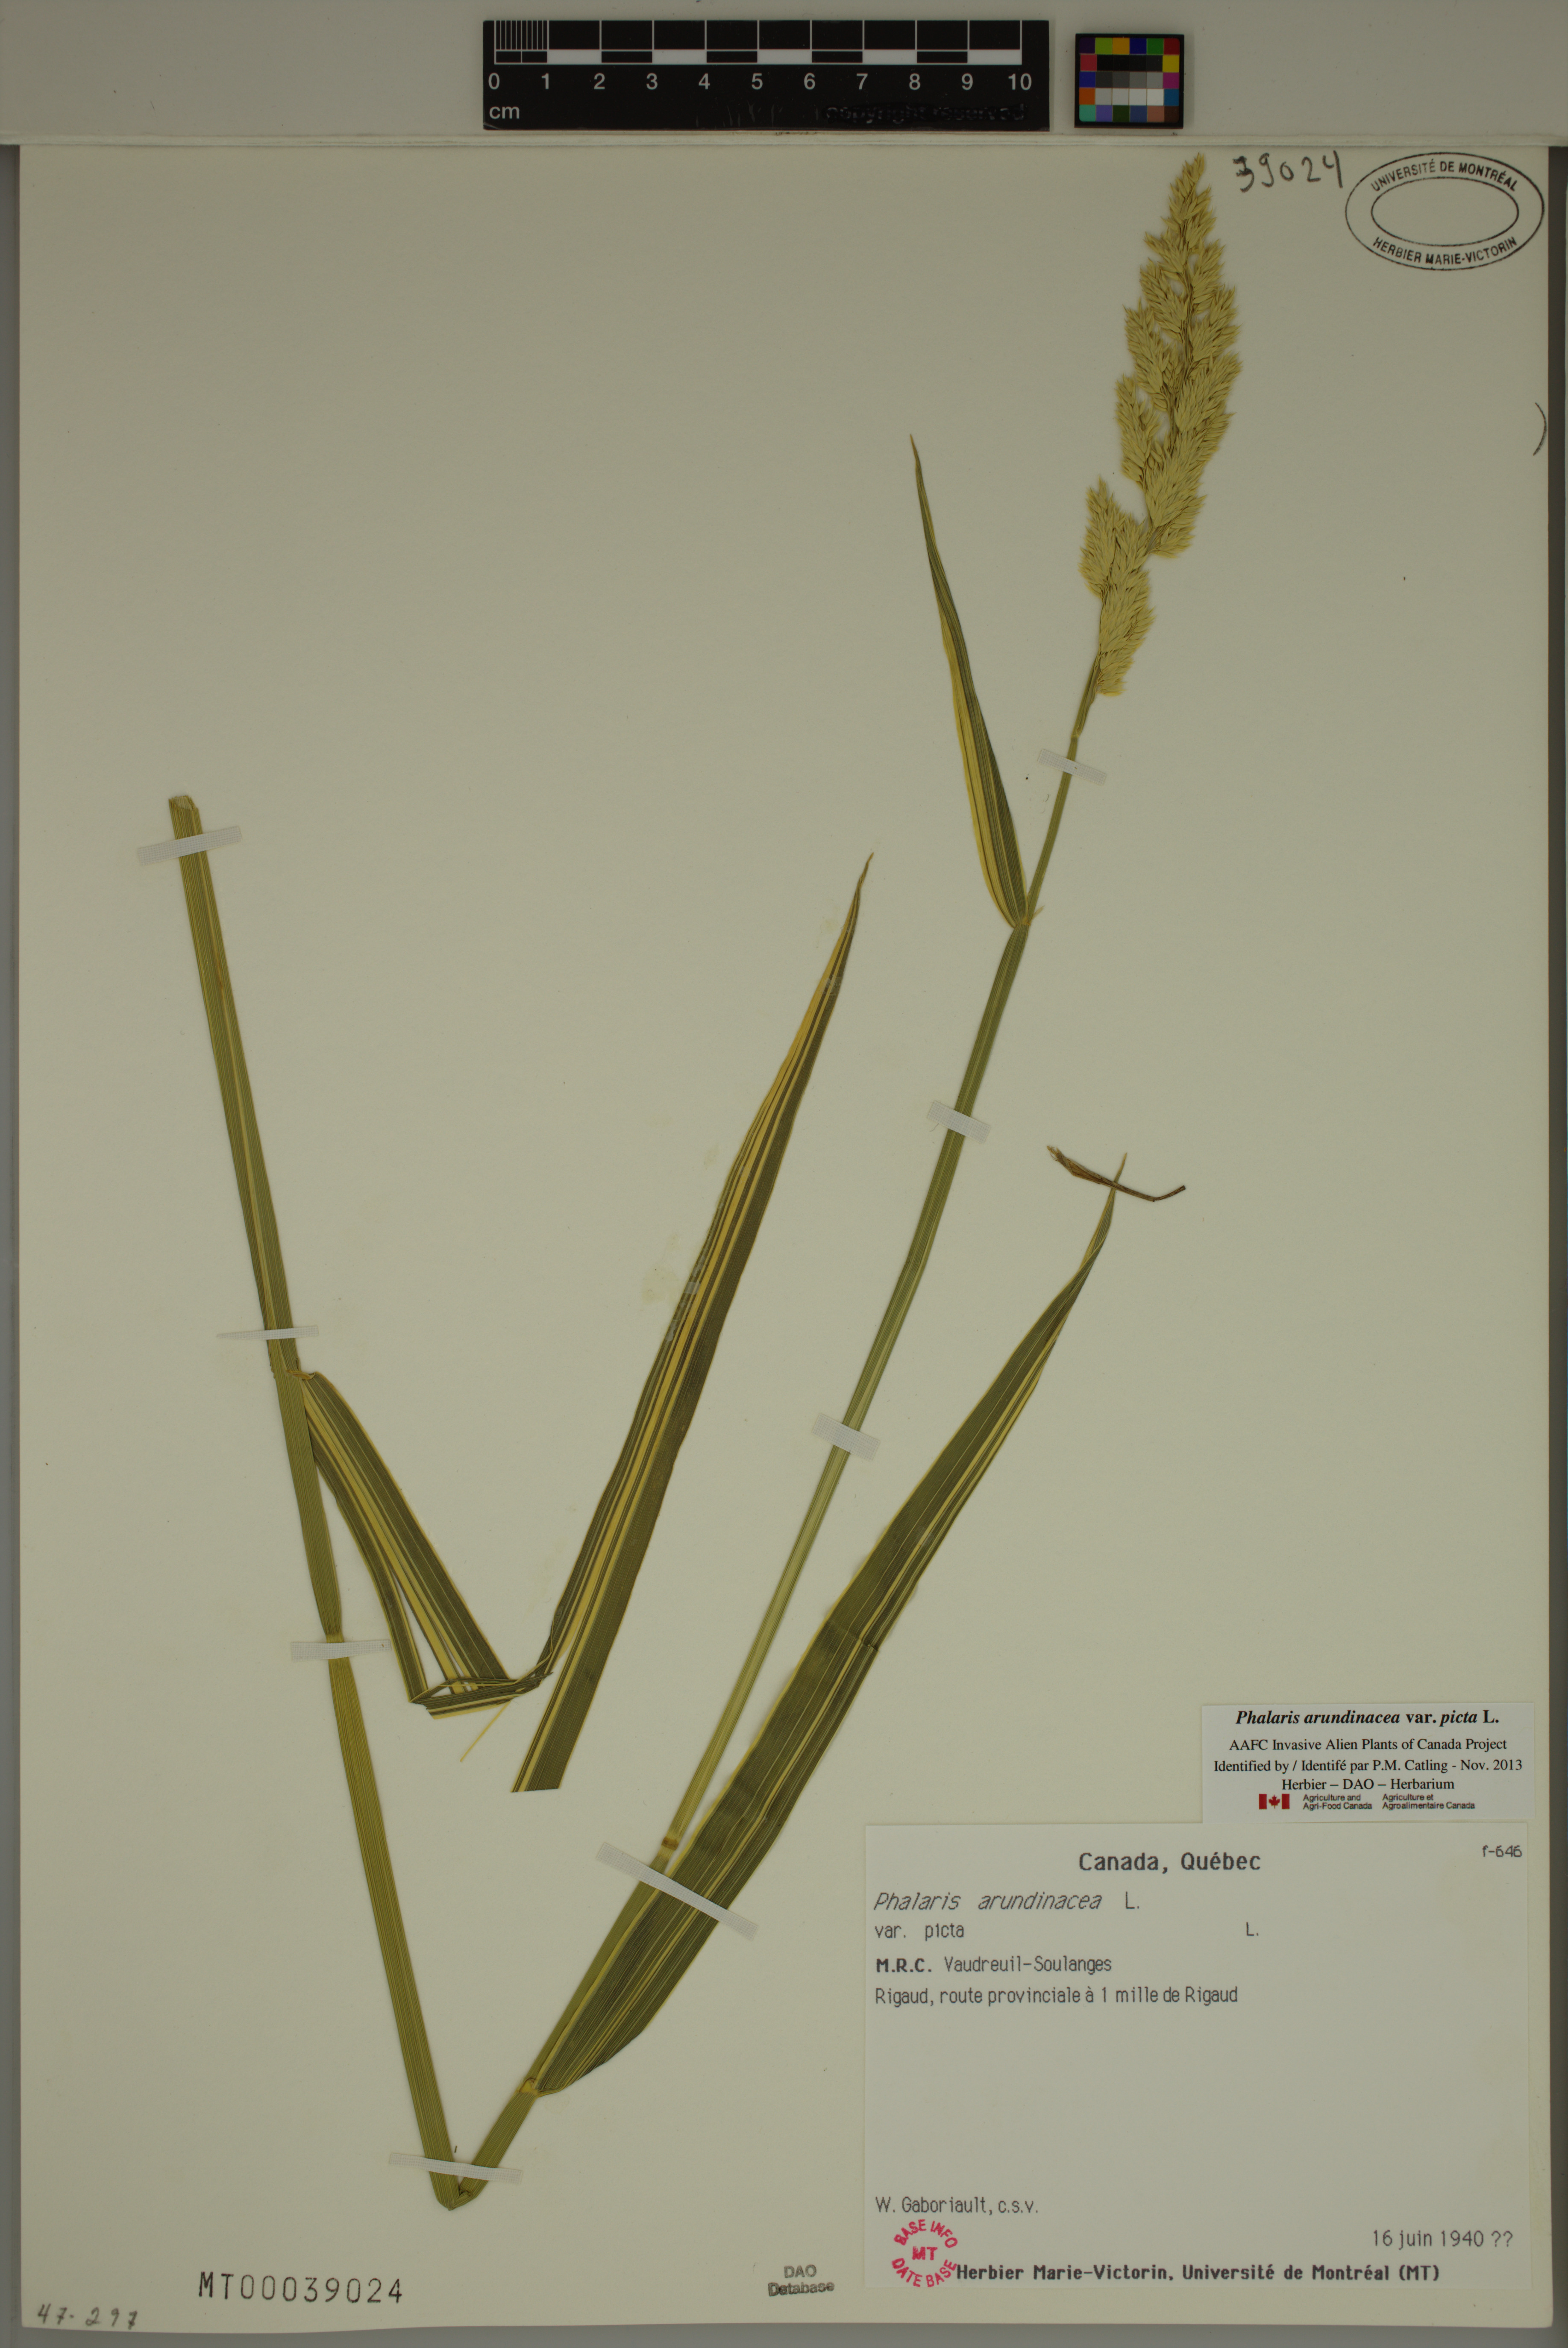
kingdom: Plantae
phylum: Tracheophyta
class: Liliopsida
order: Poales
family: Poaceae
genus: Phalaris
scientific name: Phalaris arundinacea
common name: Reed canary-grass
